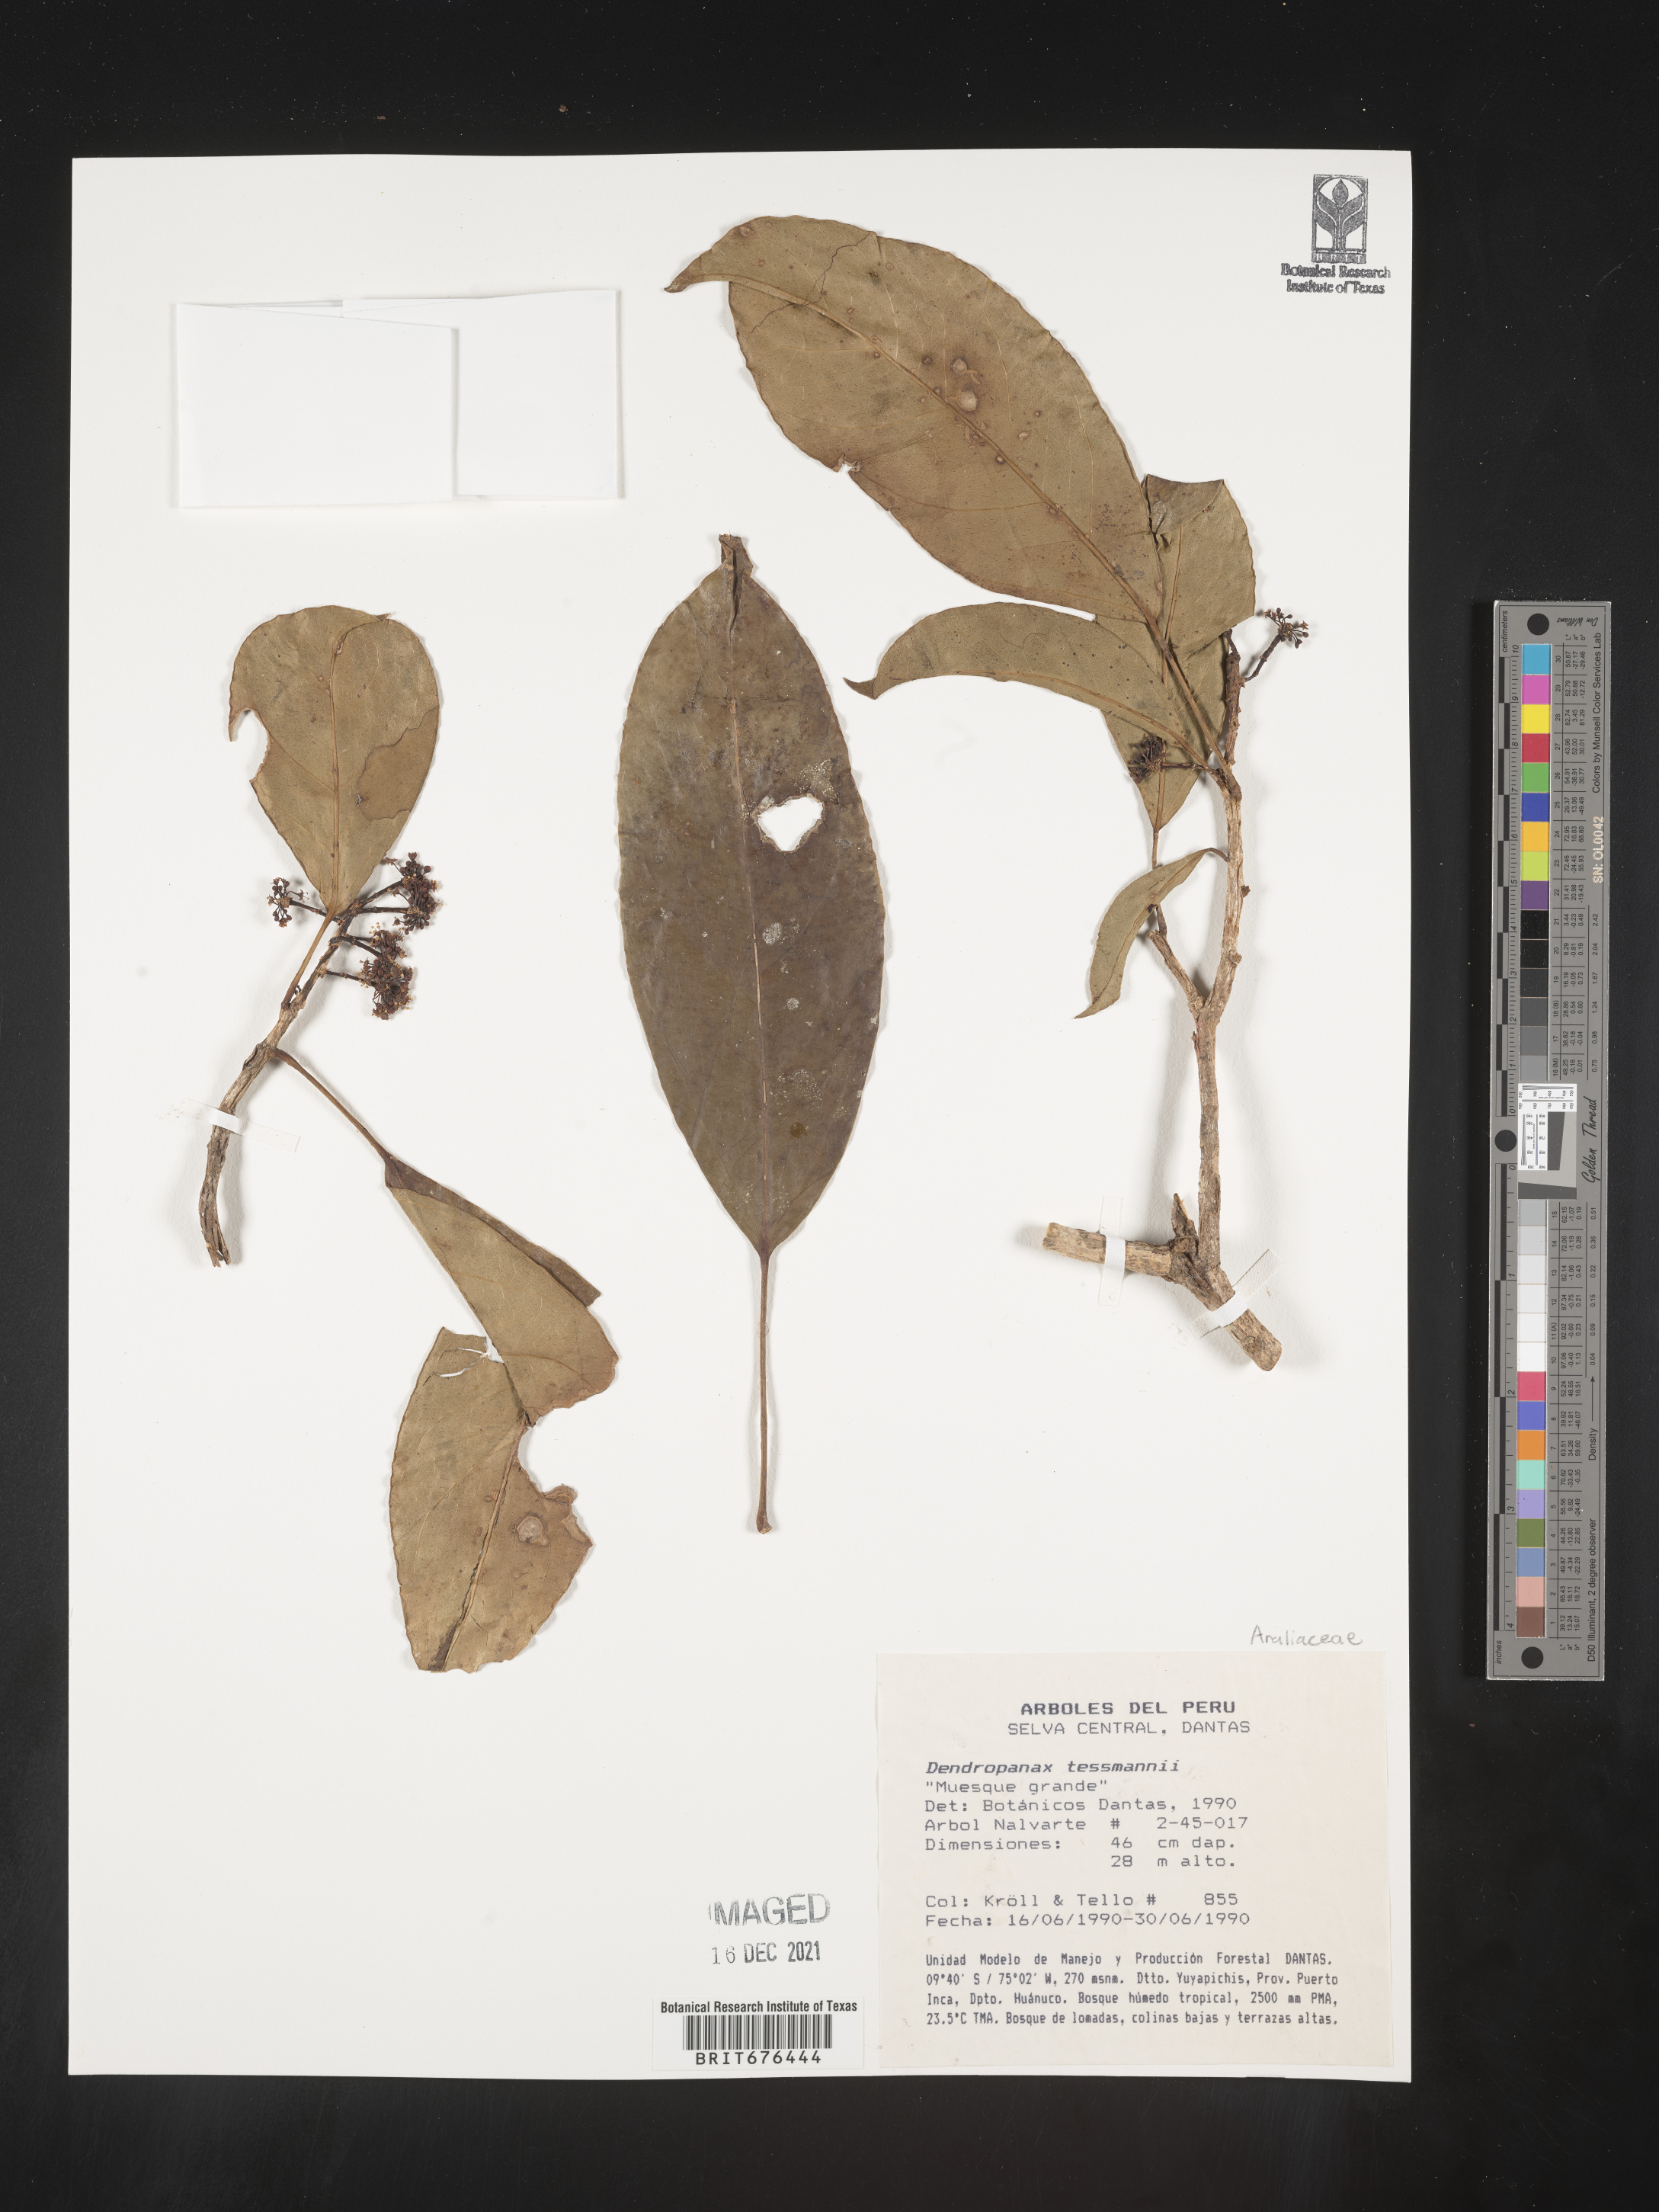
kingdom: Plantae
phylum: Tracheophyta
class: Magnoliopsida
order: Apiales
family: Araliaceae
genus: Dendropanax
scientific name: Dendropanax
